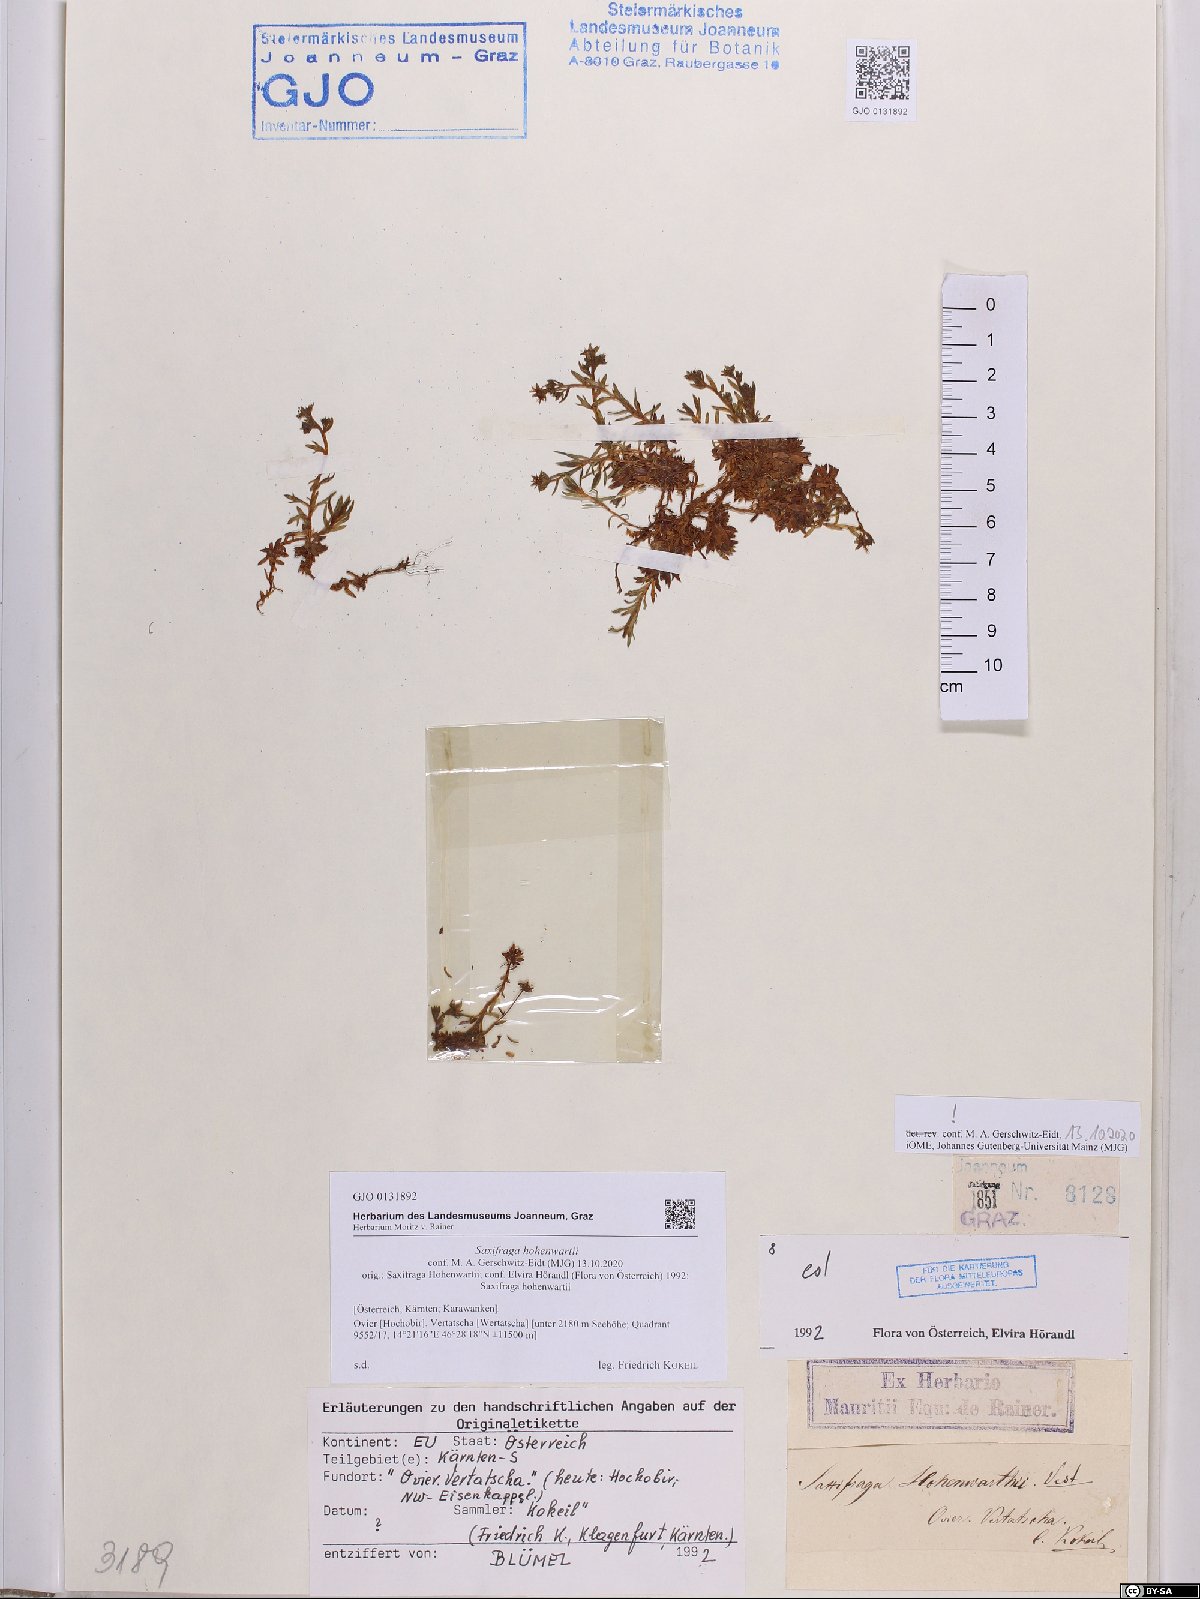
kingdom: Plantae
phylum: Tracheophyta
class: Magnoliopsida
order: Saxifragales
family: Saxifragaceae
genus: Saxifraga
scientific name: Saxifraga hohenwartii
